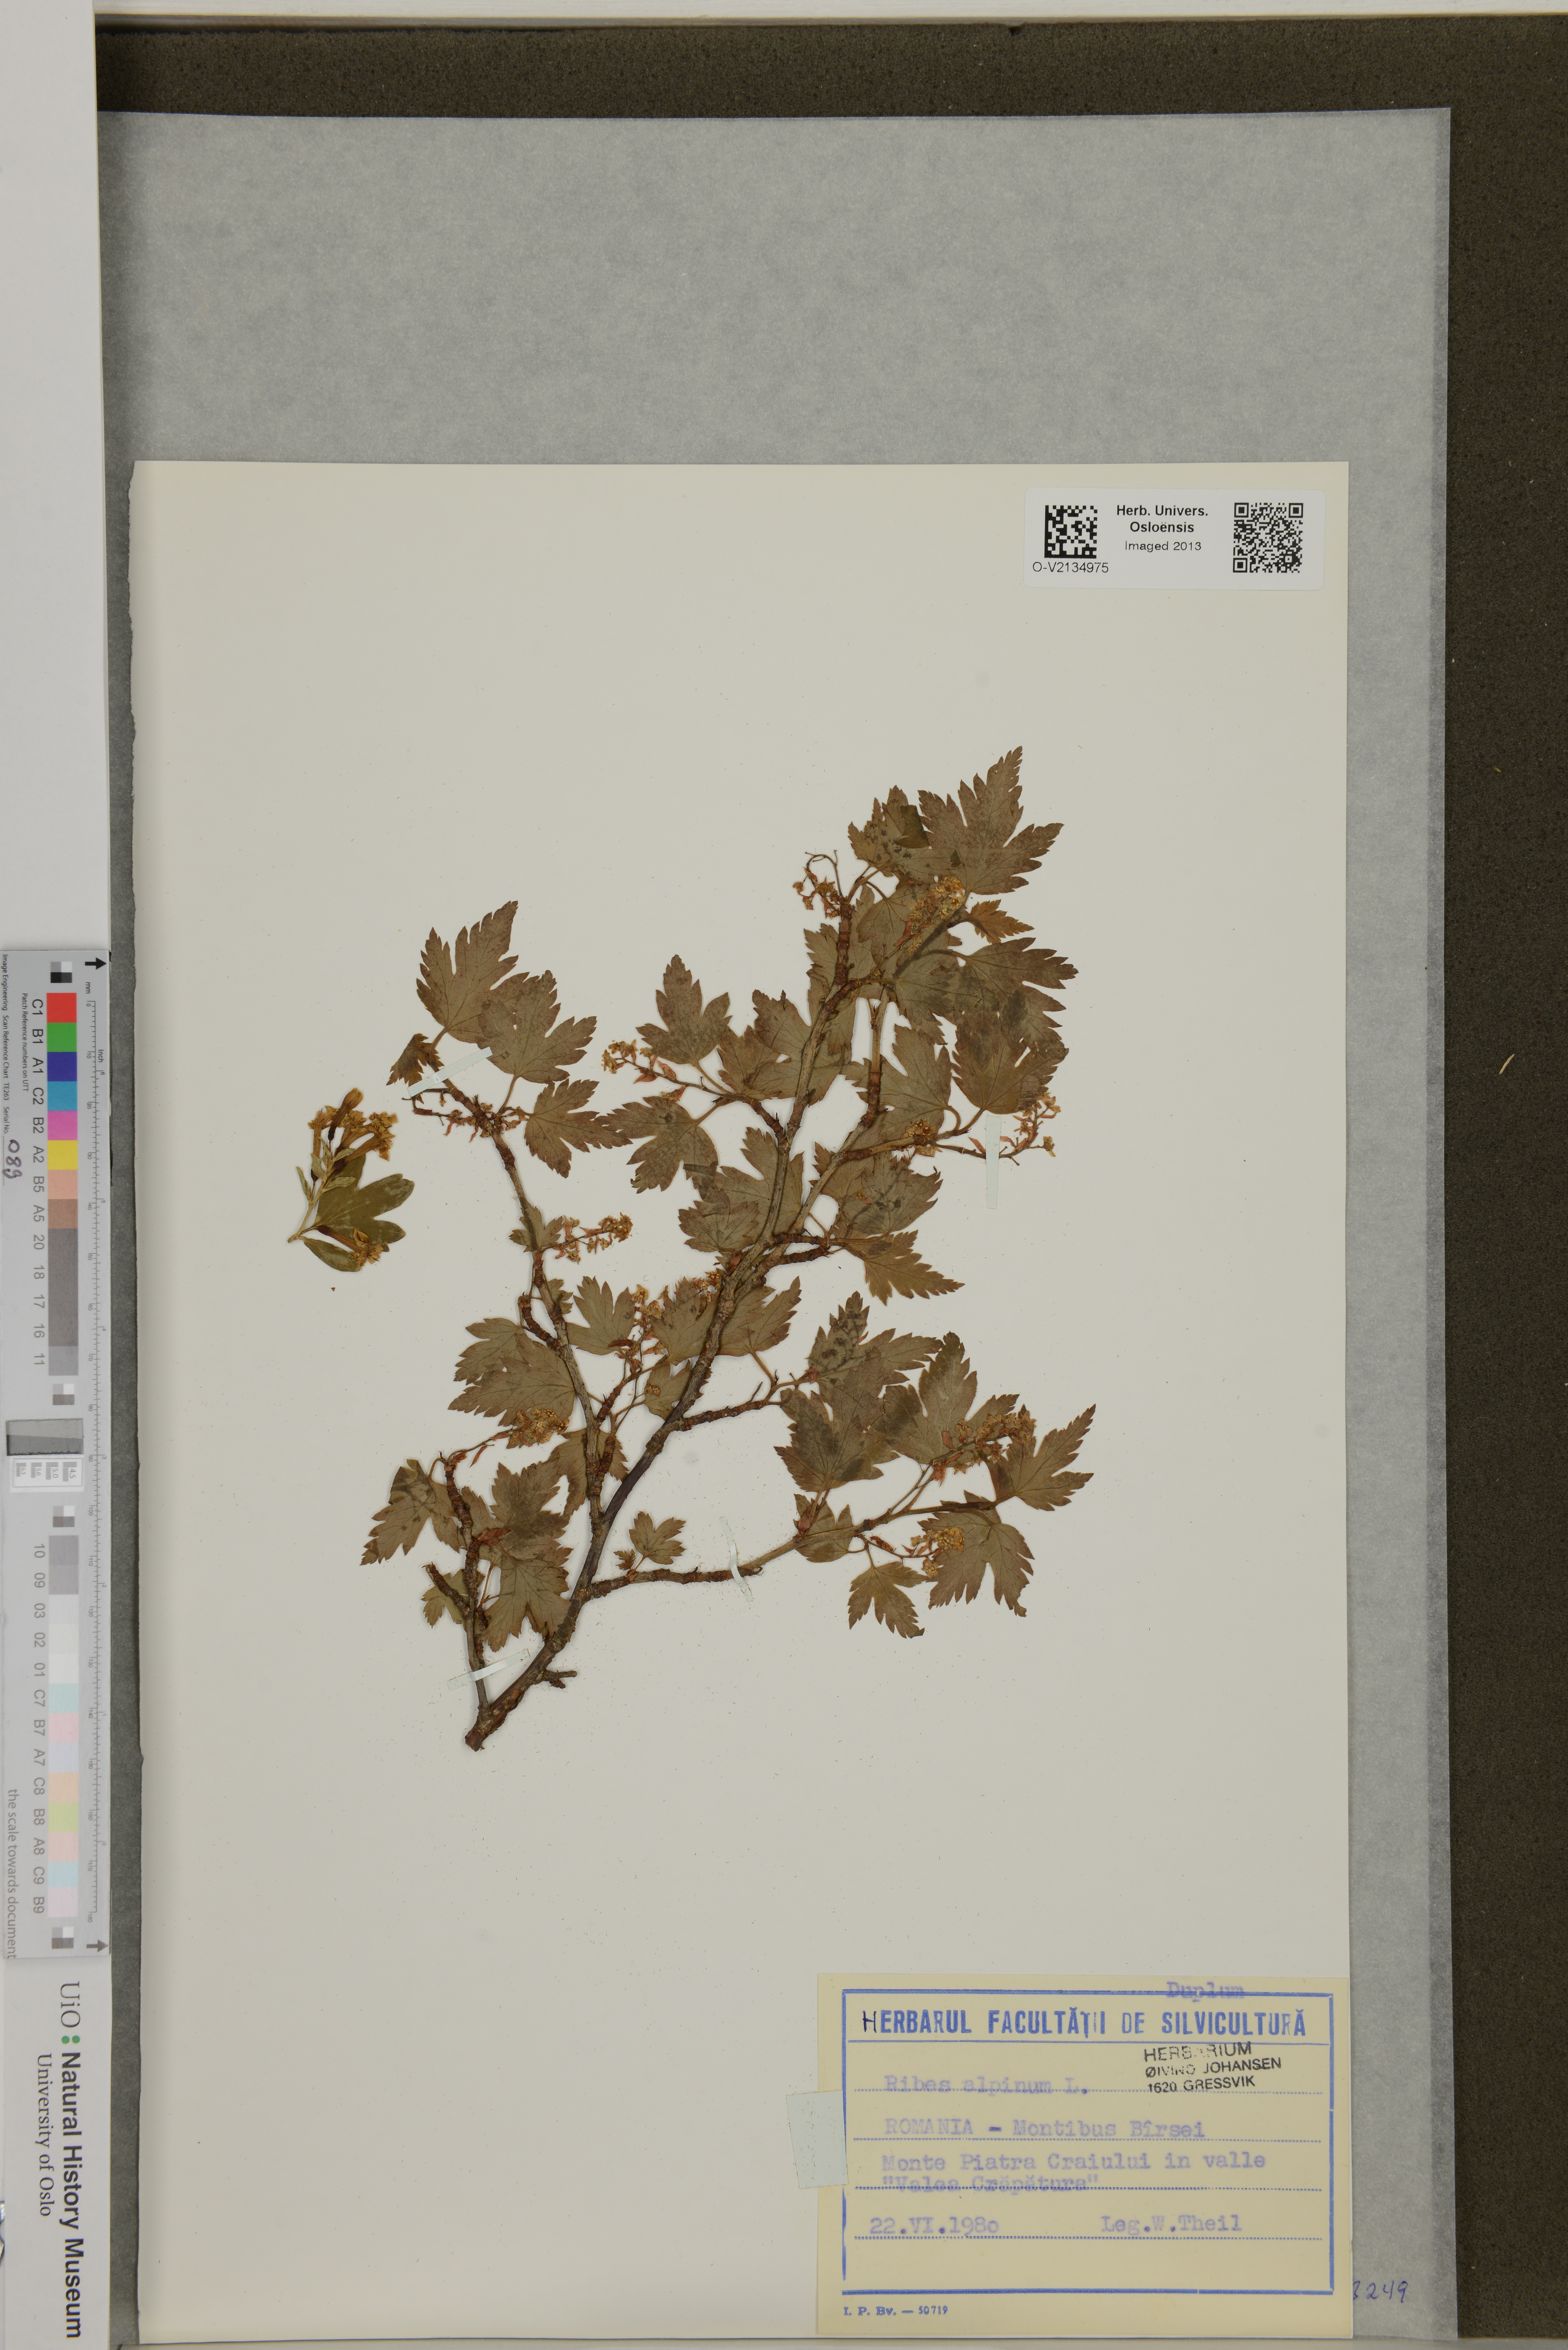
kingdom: Plantae
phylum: Tracheophyta
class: Magnoliopsida
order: Saxifragales
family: Grossulariaceae
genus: Ribes
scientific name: Ribes alpinum
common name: Alpine currant
